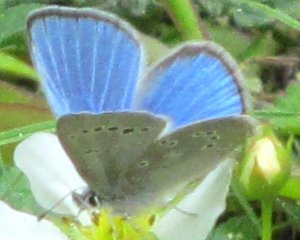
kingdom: Animalia
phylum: Arthropoda
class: Insecta
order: Lepidoptera
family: Lycaenidae
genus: Glaucopsyche
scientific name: Glaucopsyche lygdamus
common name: Silvery Blue
